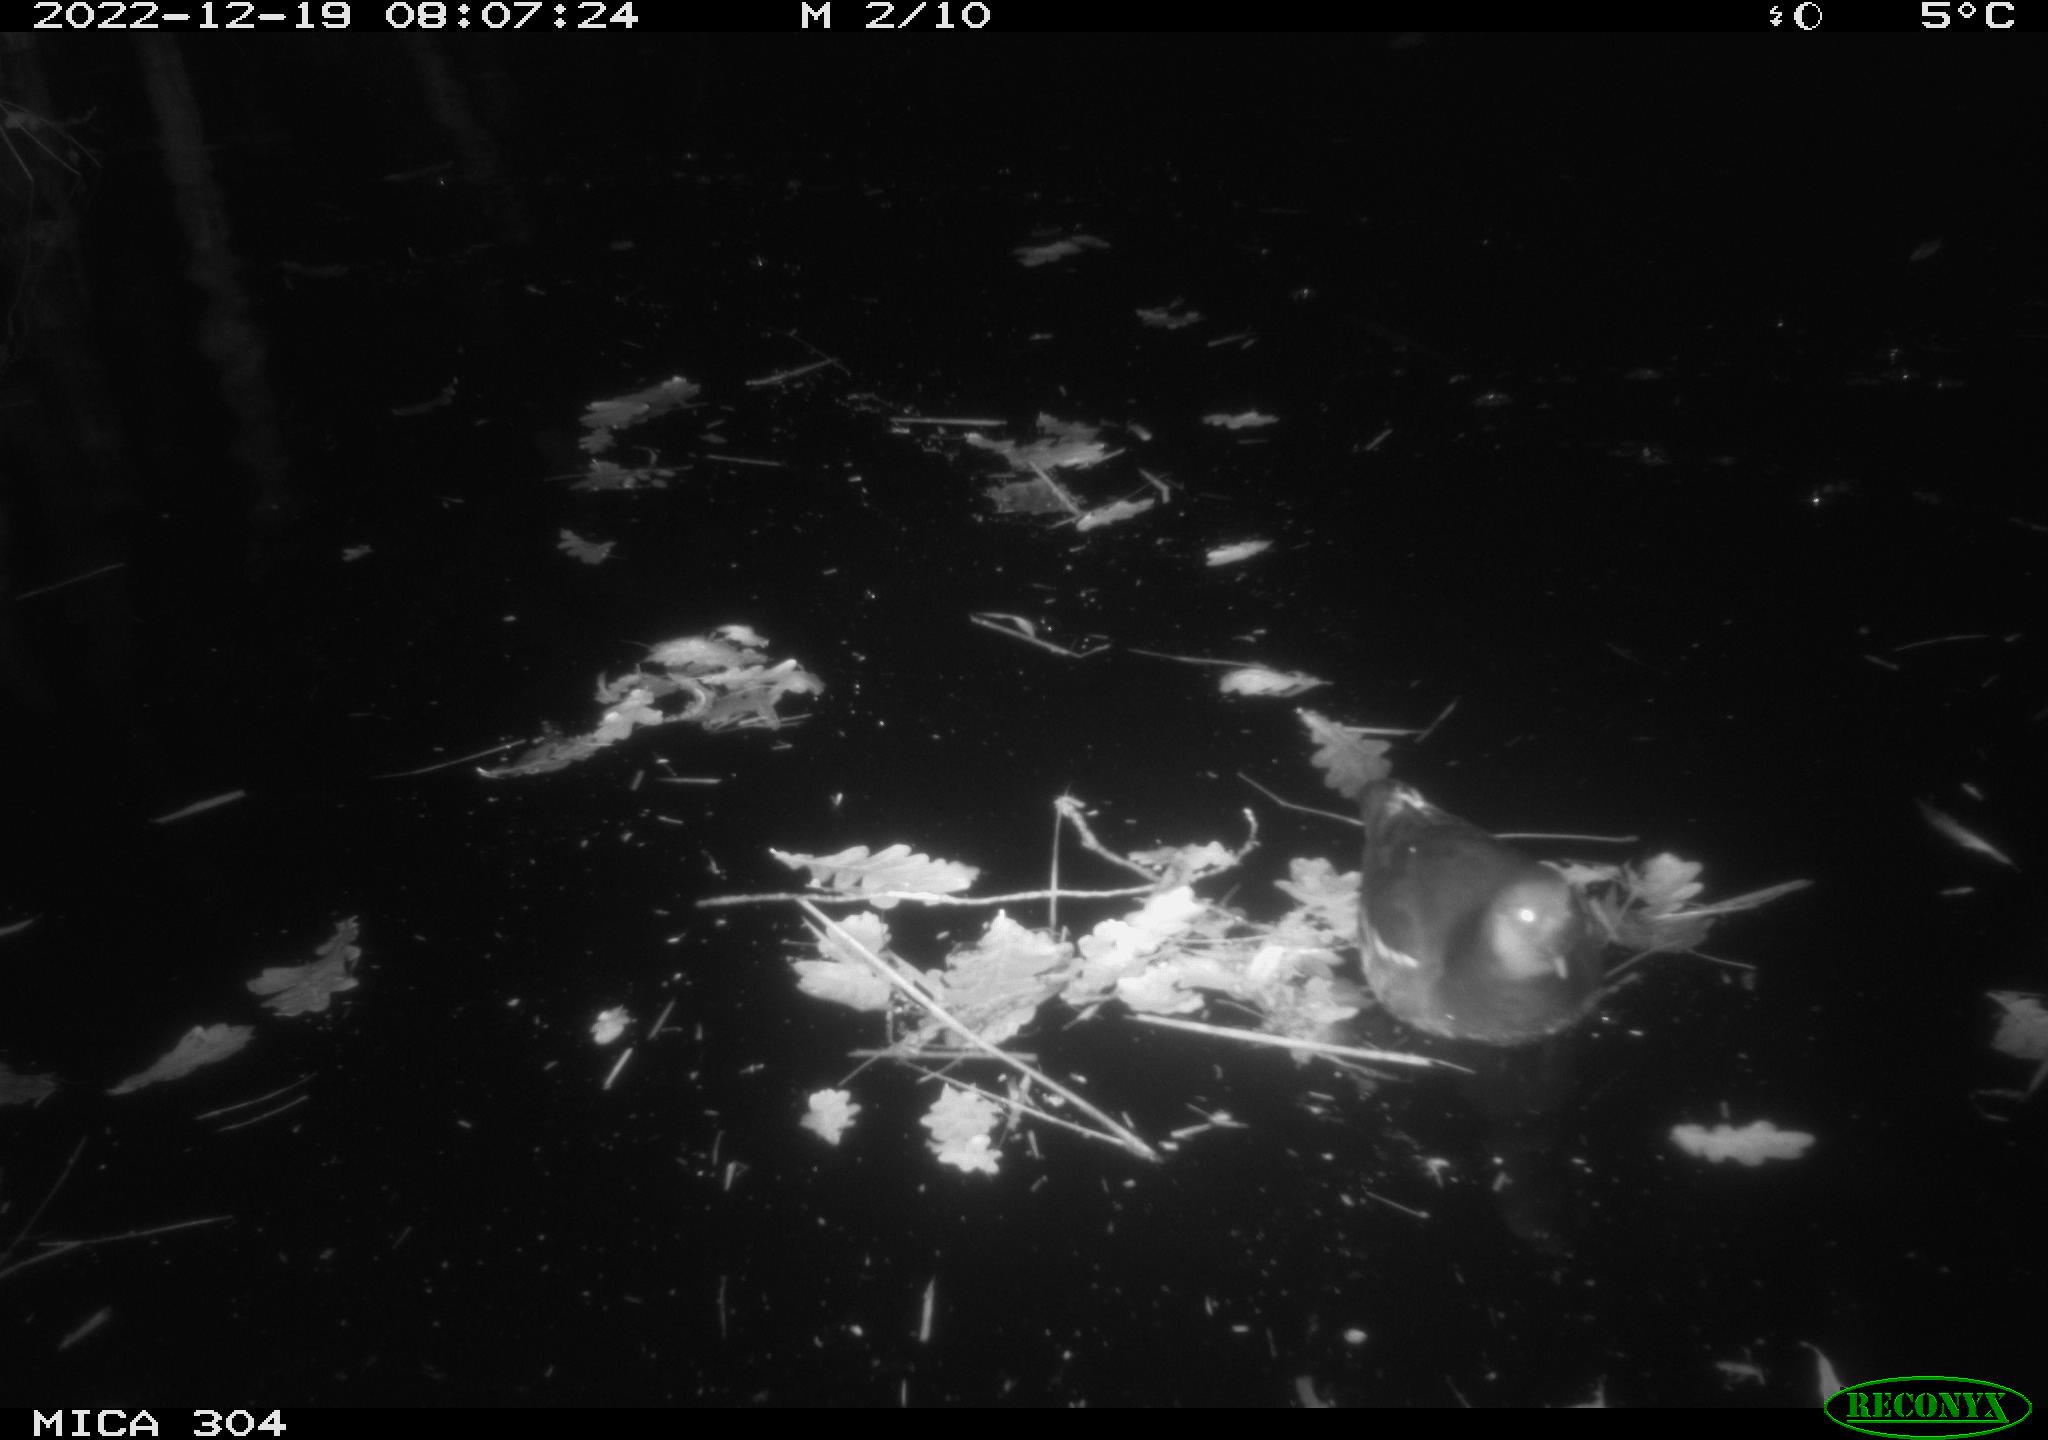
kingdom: Animalia
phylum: Chordata
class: Aves
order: Gruiformes
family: Rallidae
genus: Gallinula
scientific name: Gallinula chloropus
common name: Common moorhen
